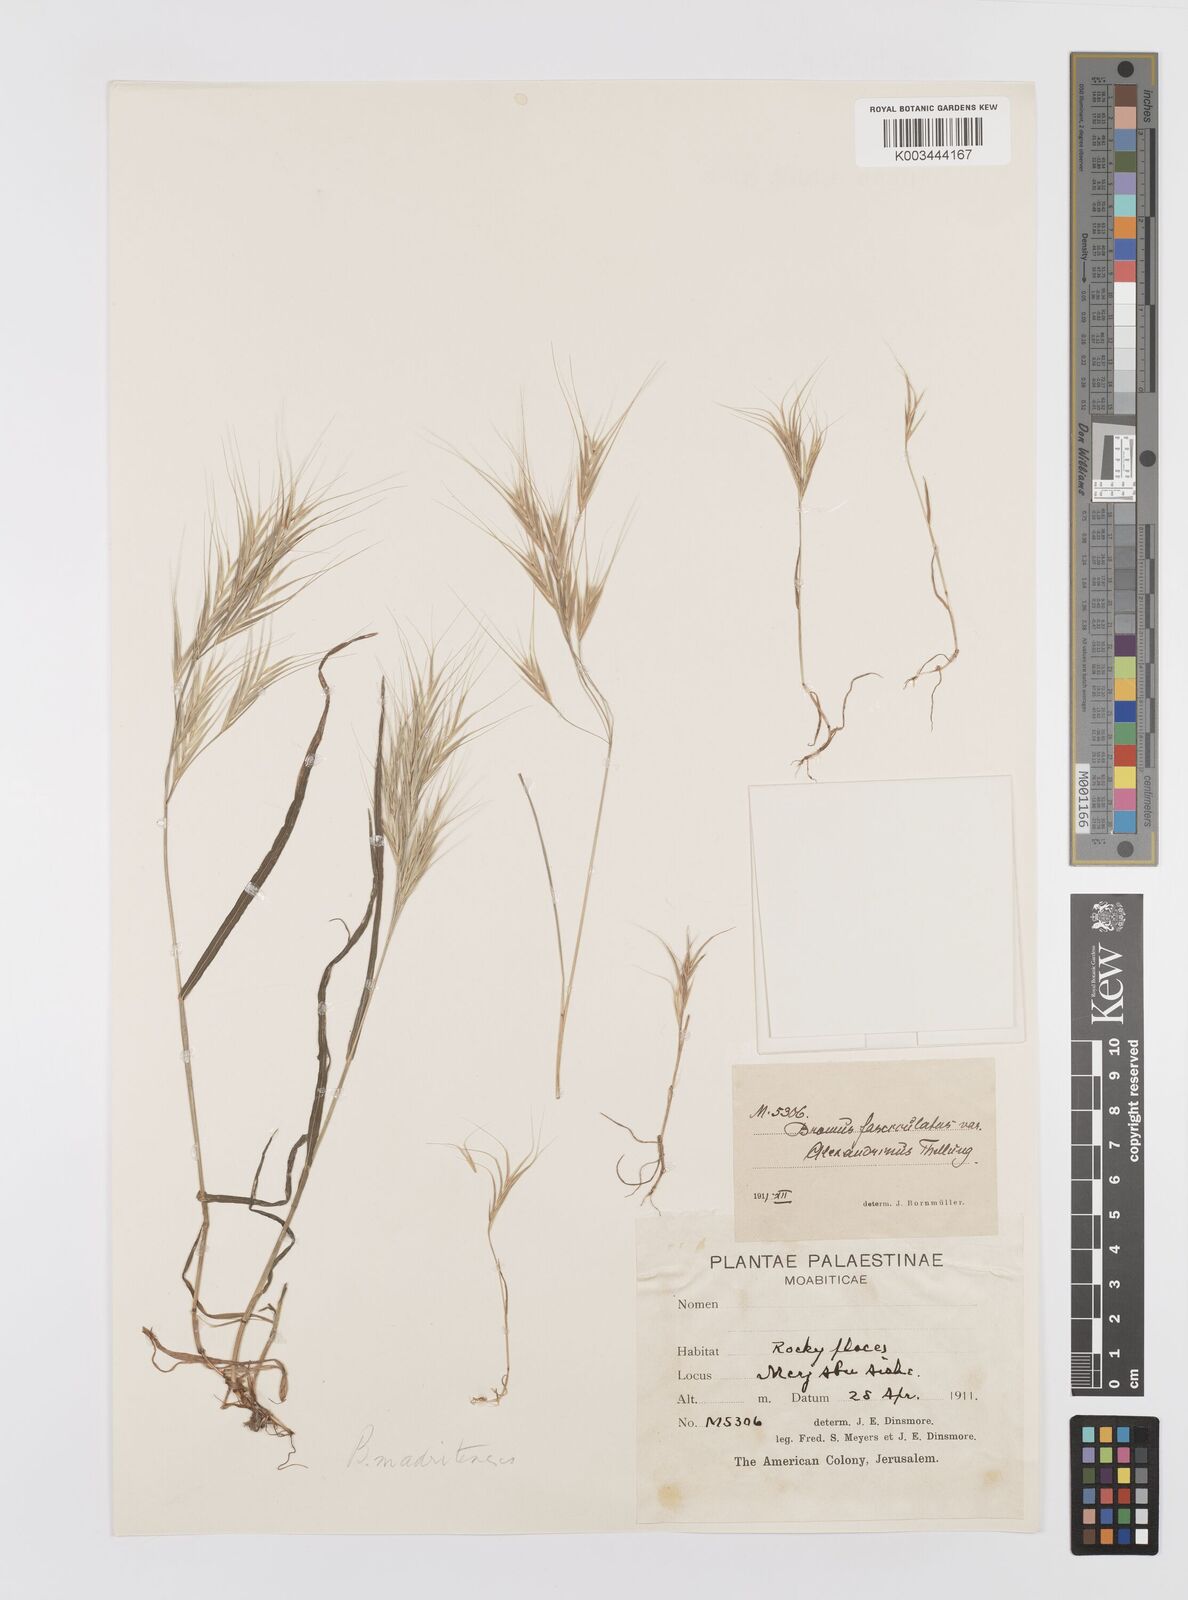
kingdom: Plantae
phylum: Tracheophyta
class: Liliopsida
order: Poales
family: Poaceae
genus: Bromus
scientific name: Bromus madritensis
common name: Compact brome
